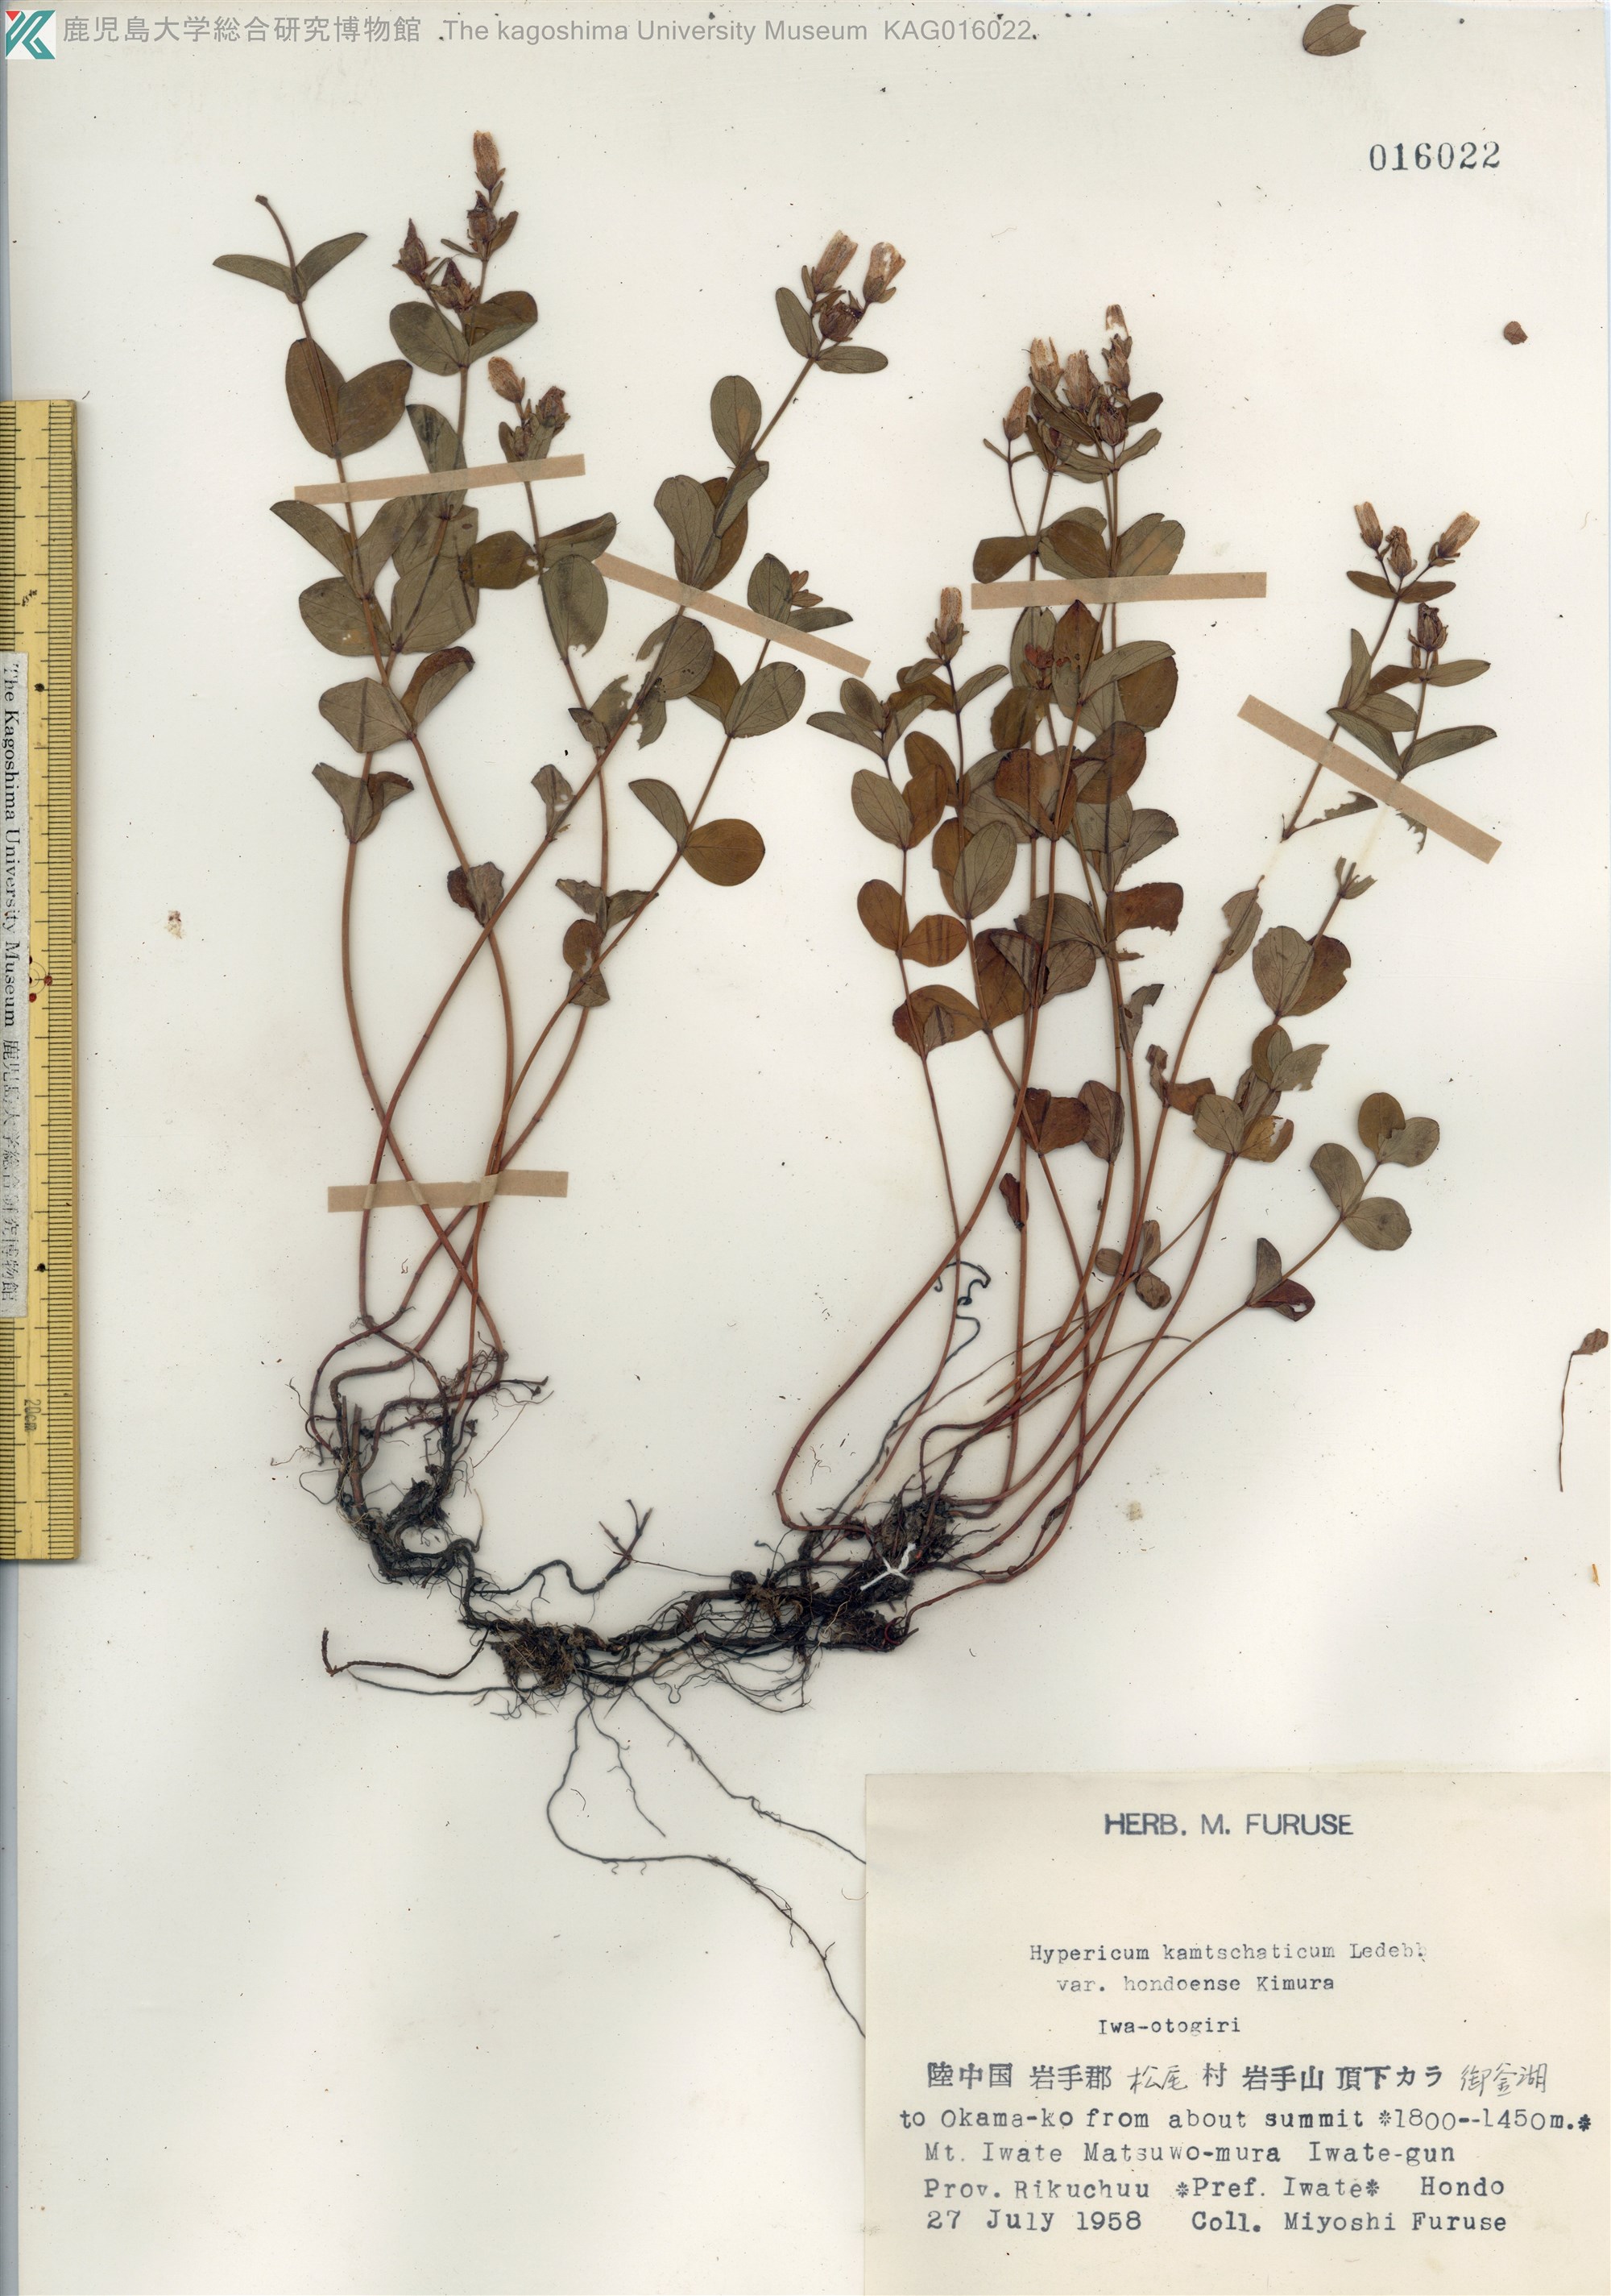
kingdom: Plantae
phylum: Tracheophyta
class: Magnoliopsida
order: Malpighiales
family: Hypericaceae
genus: Hypericum
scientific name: Hypericum kamtschaticum
